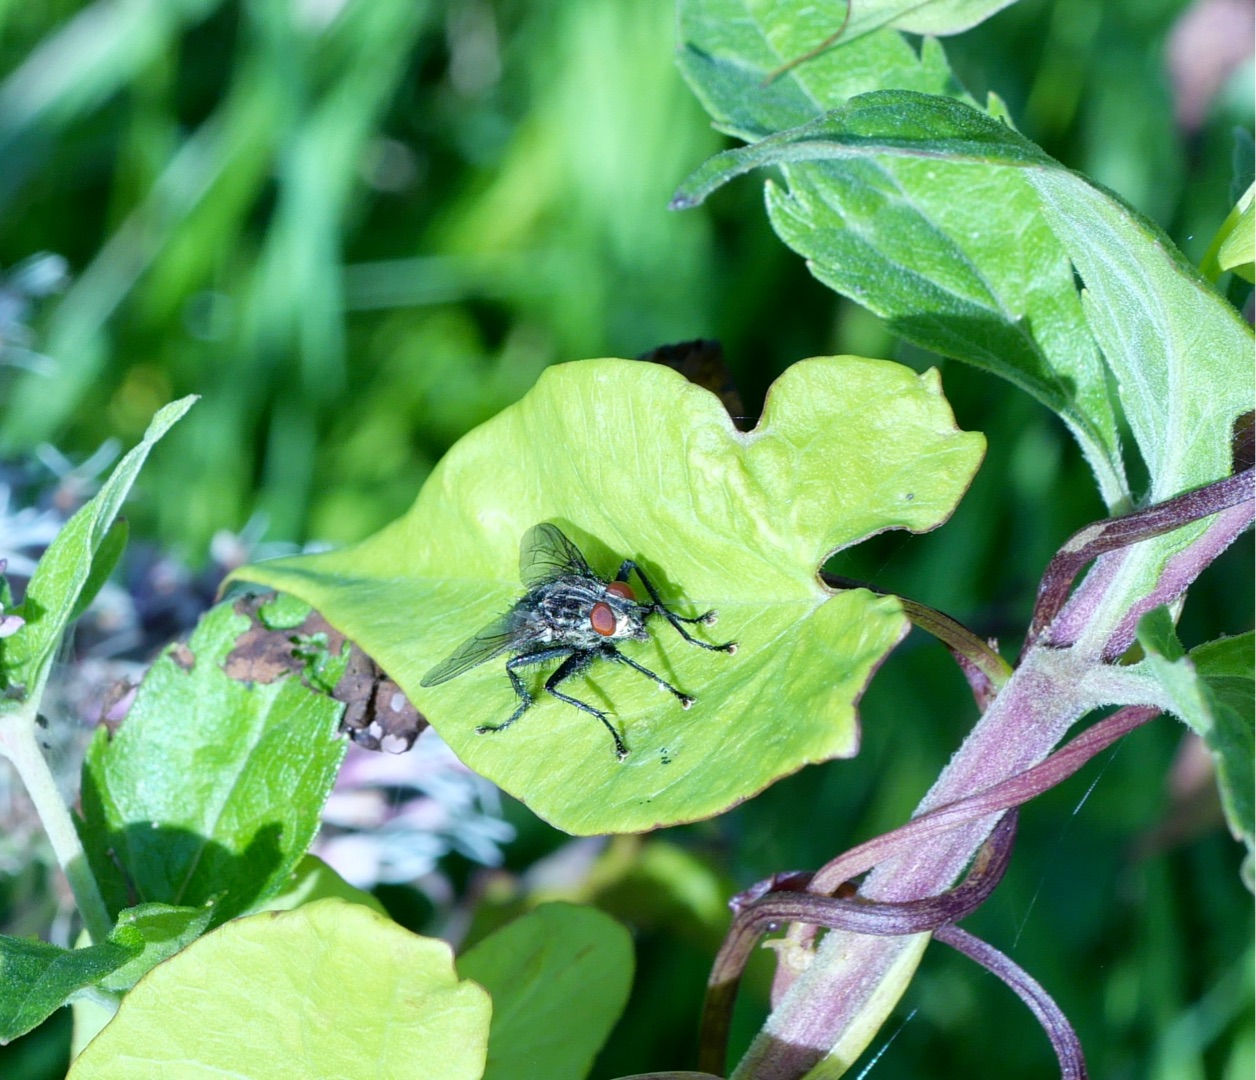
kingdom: Animalia
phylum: Arthropoda
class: Insecta
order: Diptera
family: Sarcophagidae
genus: Sarcophaga
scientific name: Sarcophaga
